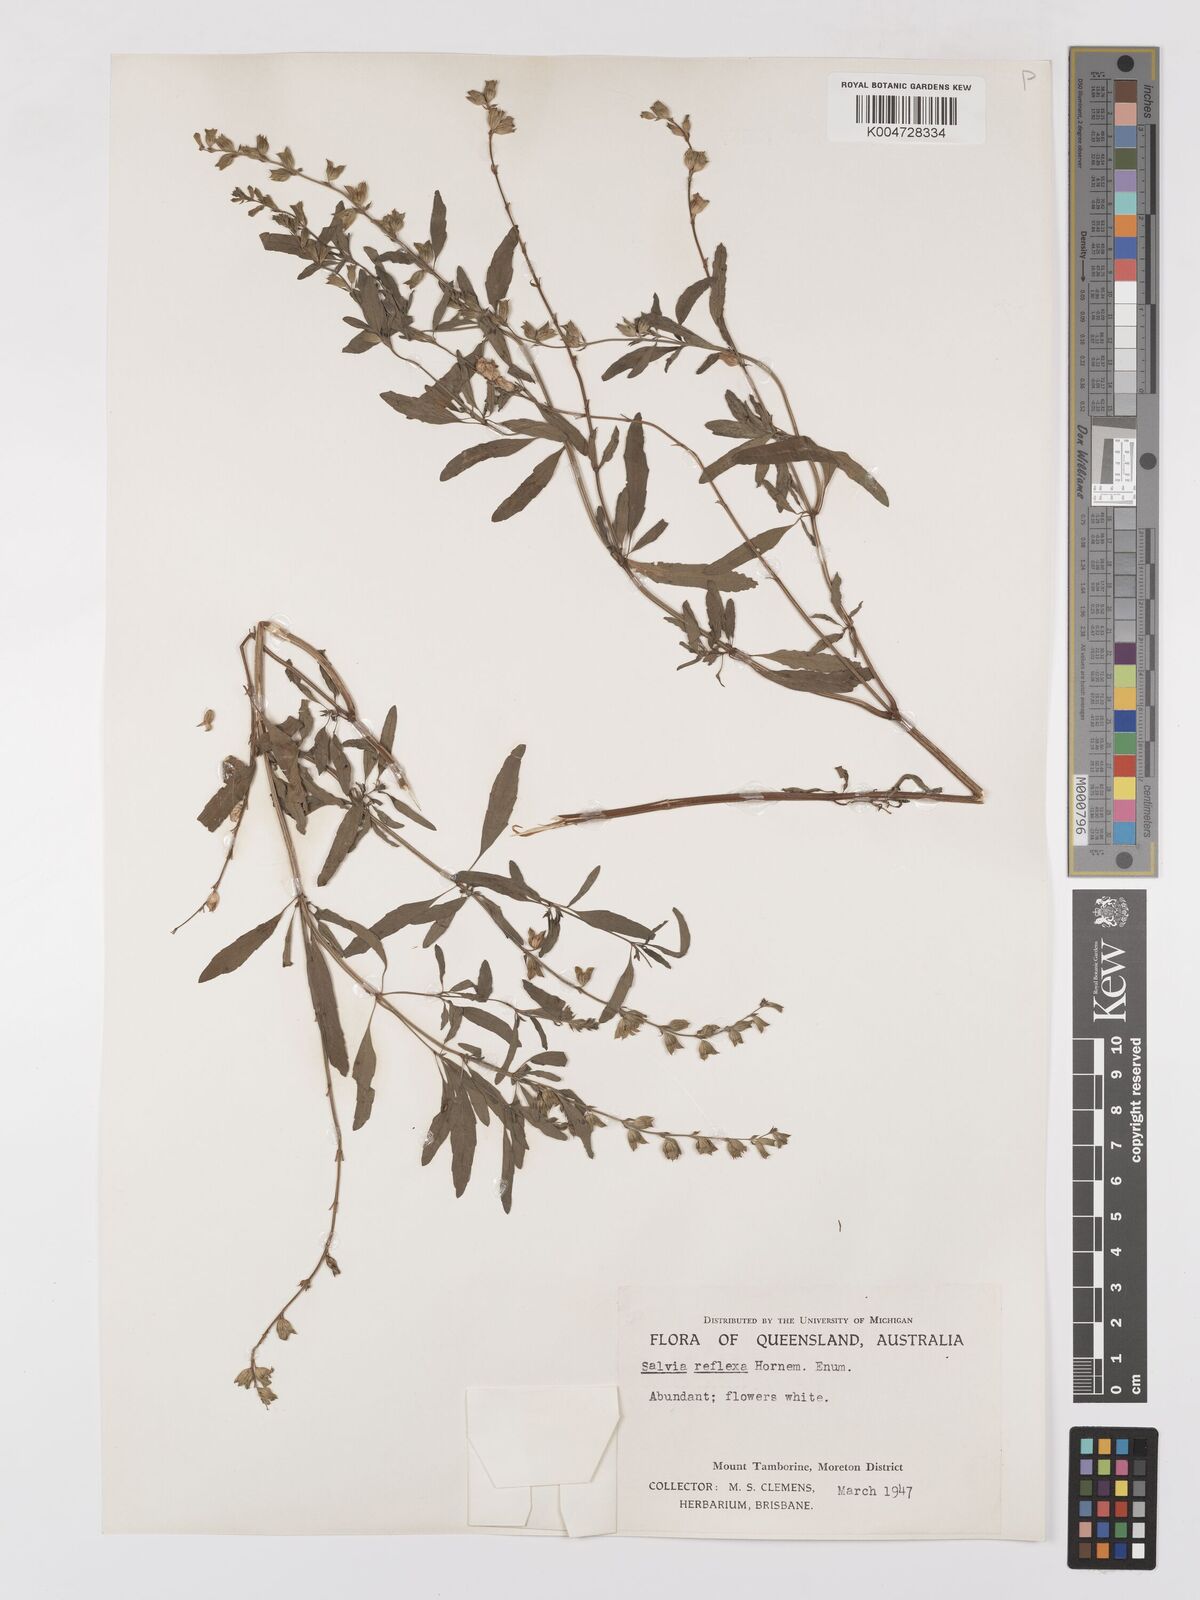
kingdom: Plantae
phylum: Tracheophyta
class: Magnoliopsida
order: Lamiales
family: Lamiaceae
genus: Salvia
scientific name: Salvia reflexa
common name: Mintweed
